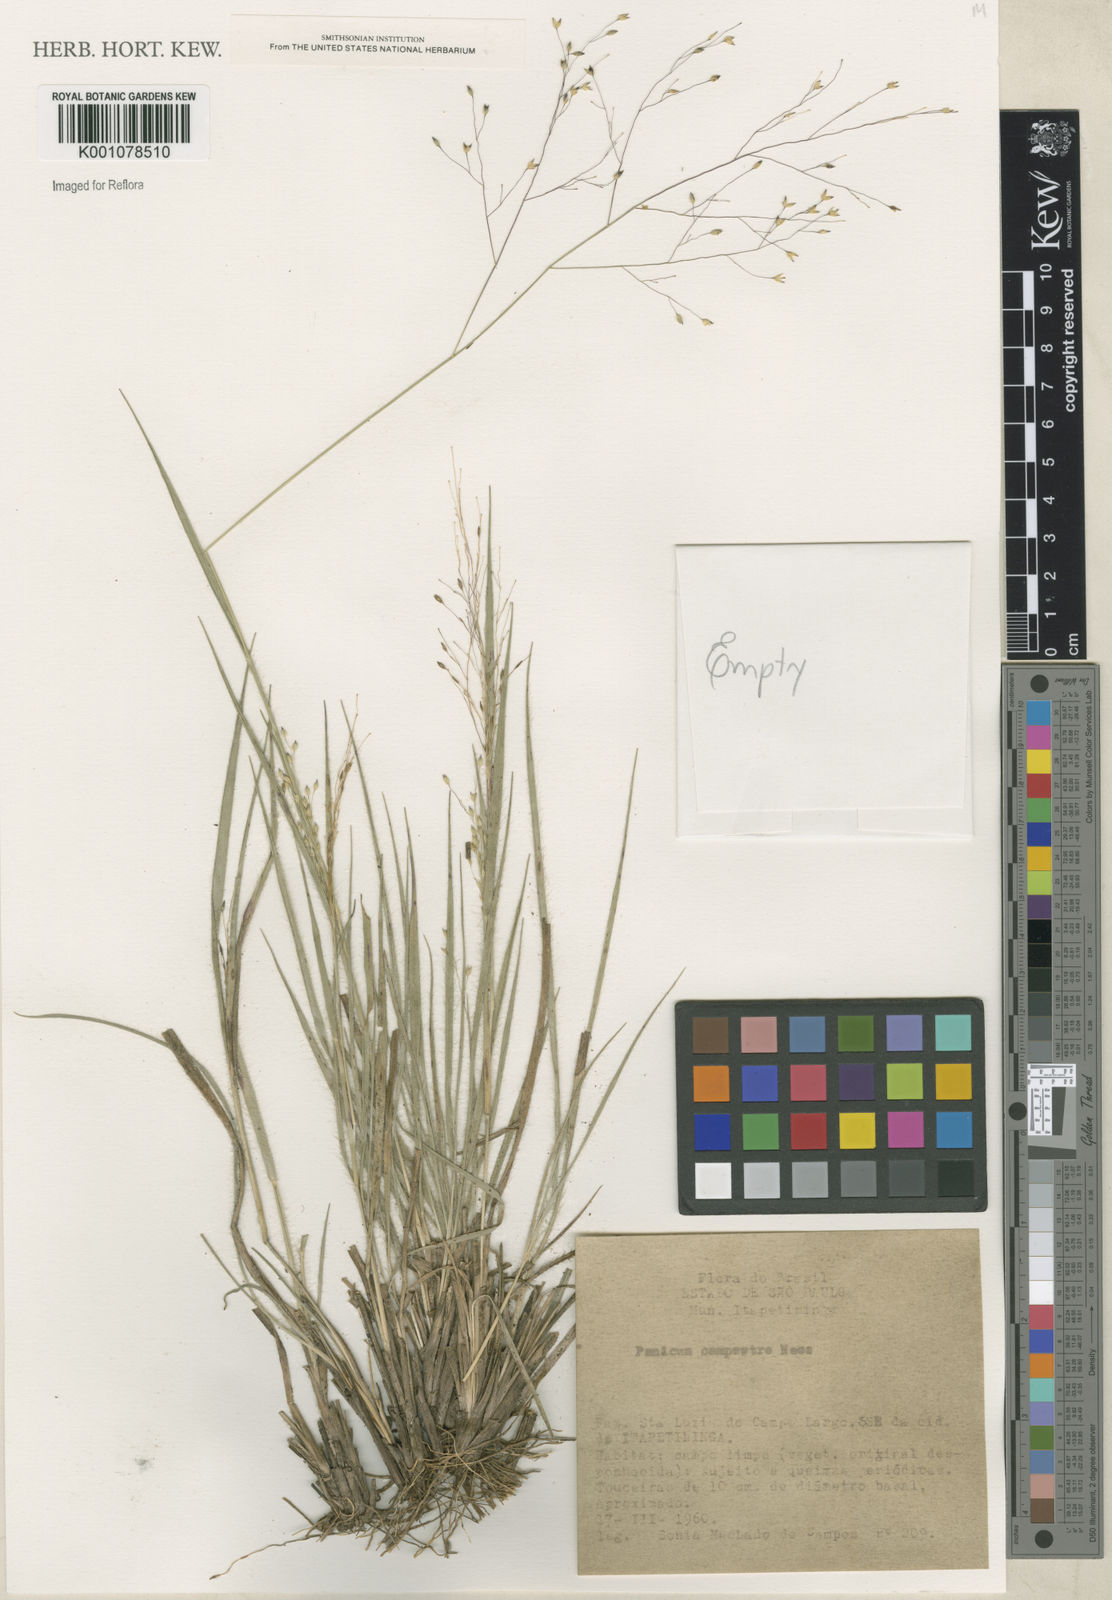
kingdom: Plantae
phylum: Tracheophyta
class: Liliopsida
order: Poales
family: Poaceae
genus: Panicum
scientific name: Panicum campestre
